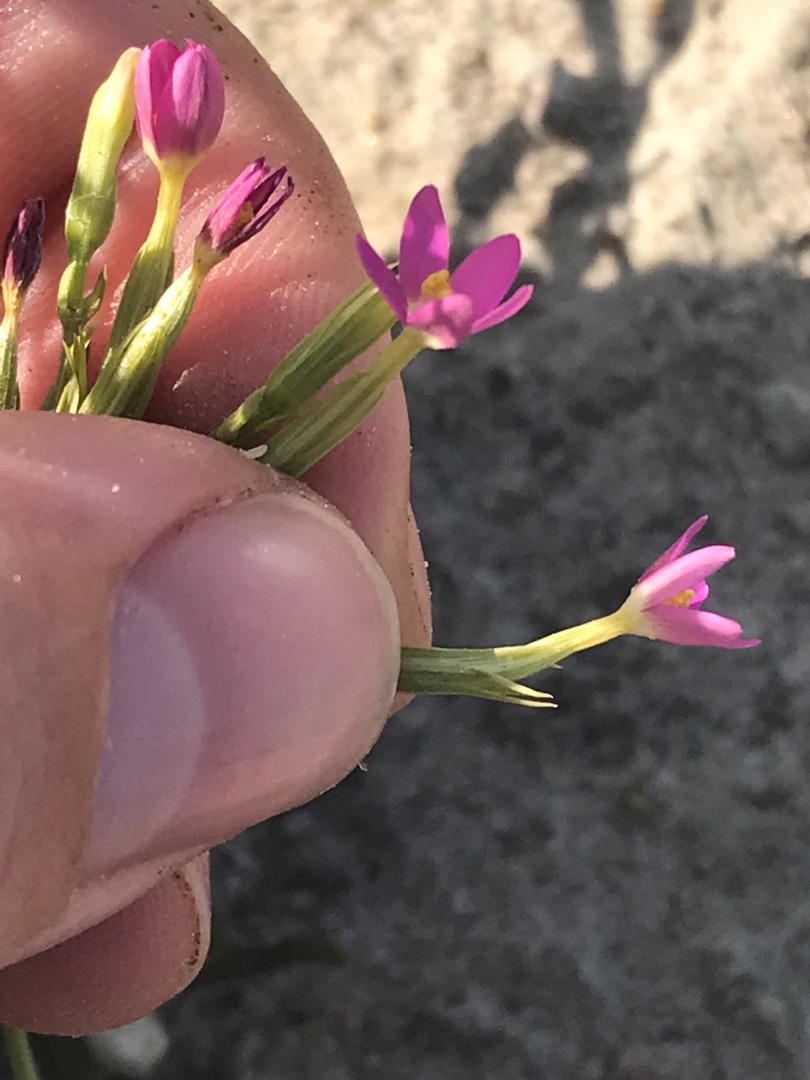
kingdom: Plantae
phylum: Tracheophyta
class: Magnoliopsida
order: Gentianales
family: Gentianaceae
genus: Centaurium
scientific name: Centaurium erythraea
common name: Mark-tusindgylden
